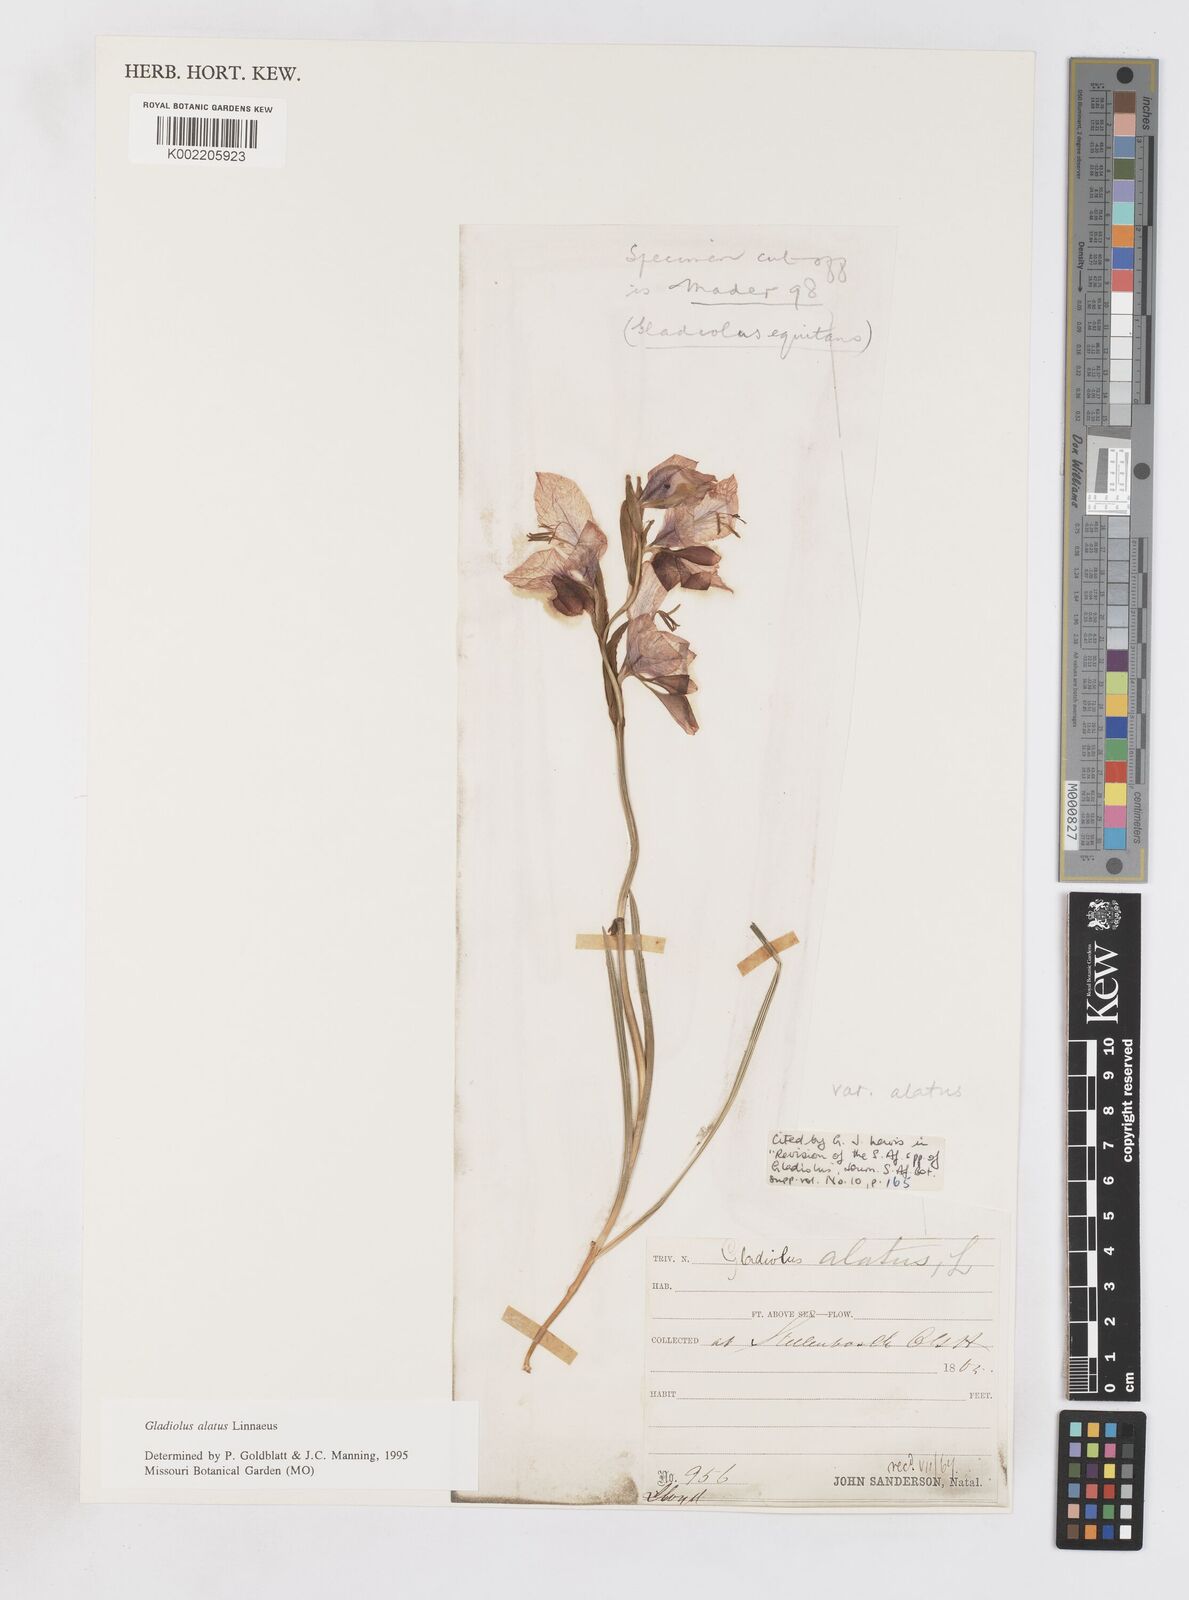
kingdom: Plantae
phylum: Tracheophyta
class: Liliopsida
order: Asparagales
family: Iridaceae
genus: Gladiolus
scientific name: Gladiolus alatus
